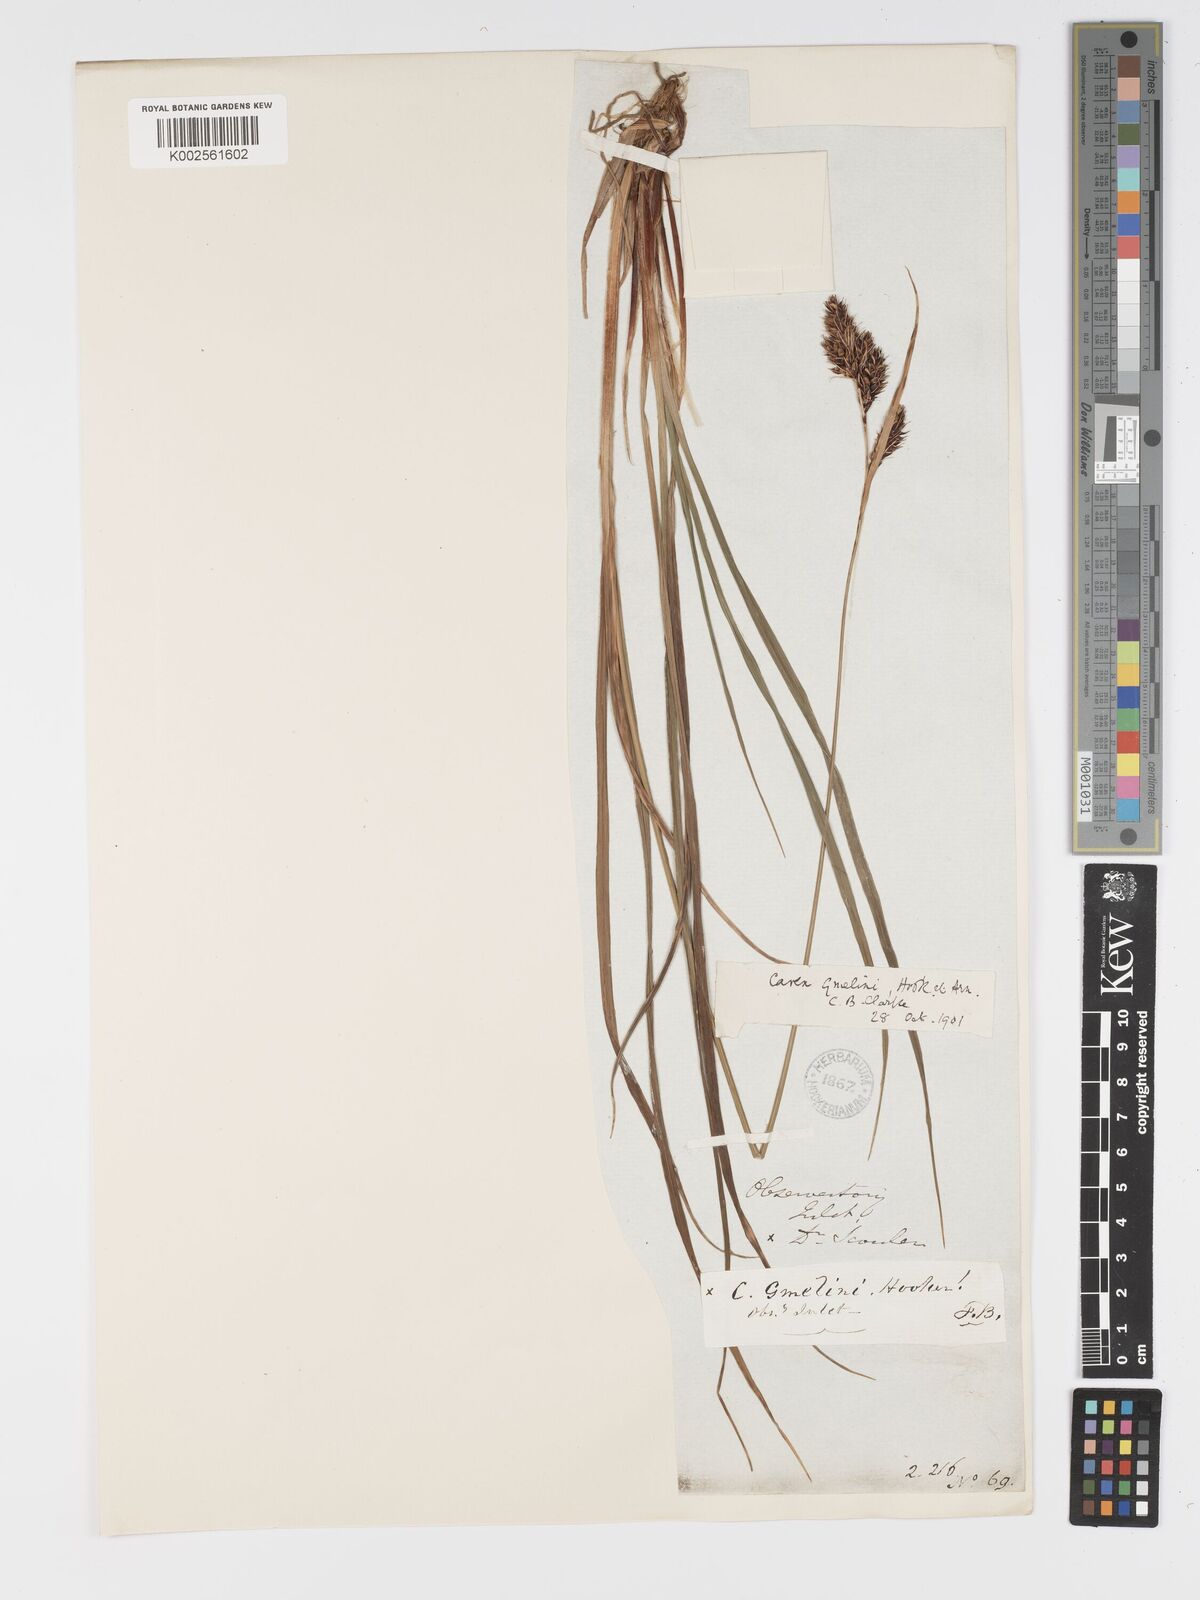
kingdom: Plantae
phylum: Tracheophyta
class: Liliopsida
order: Poales
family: Cyperaceae
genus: Carex
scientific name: Carex gmelinii
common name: Gmelin's sedge
